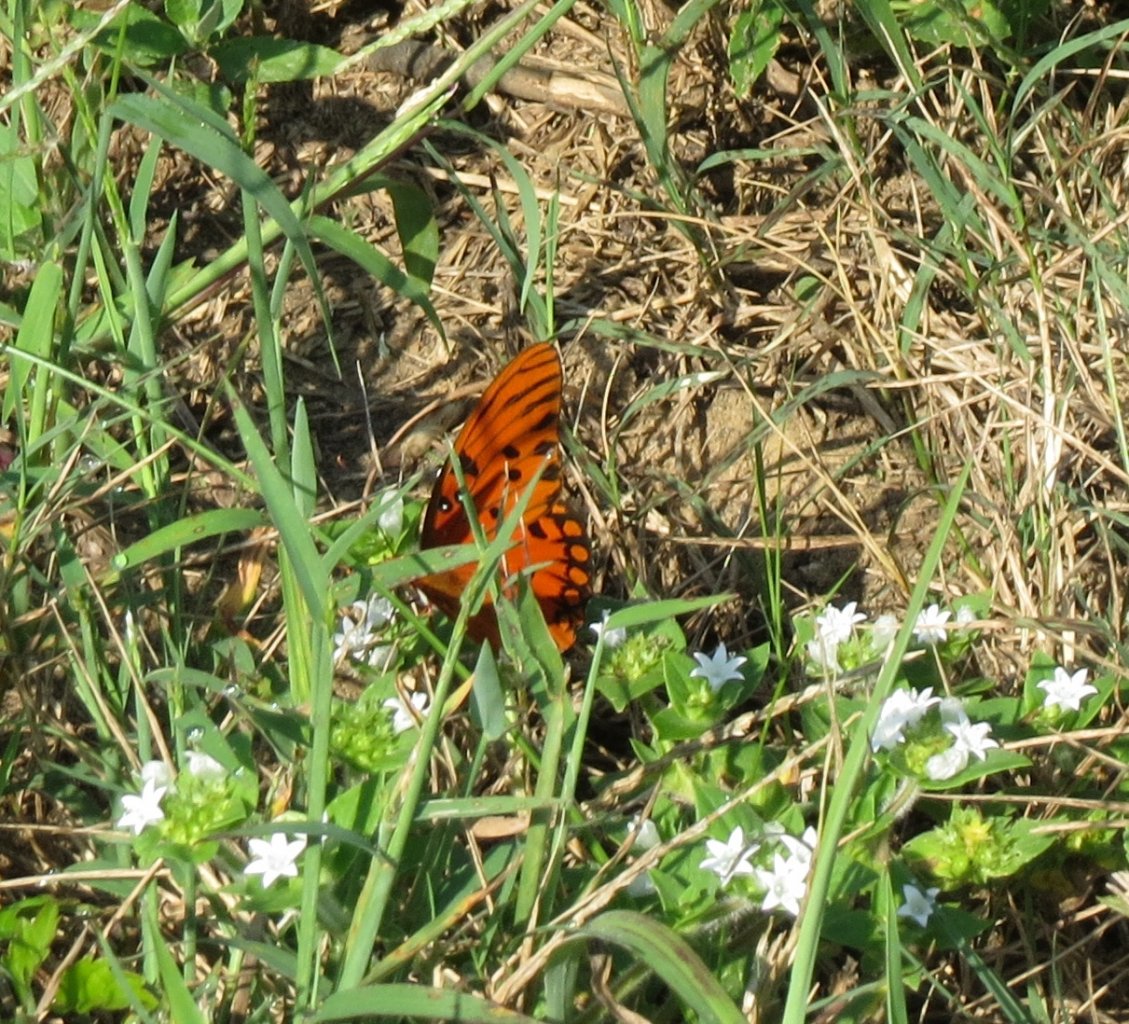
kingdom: Animalia
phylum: Arthropoda
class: Insecta
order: Lepidoptera
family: Nymphalidae
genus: Dione
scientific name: Dione vanillae
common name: Gulf Fritillary
